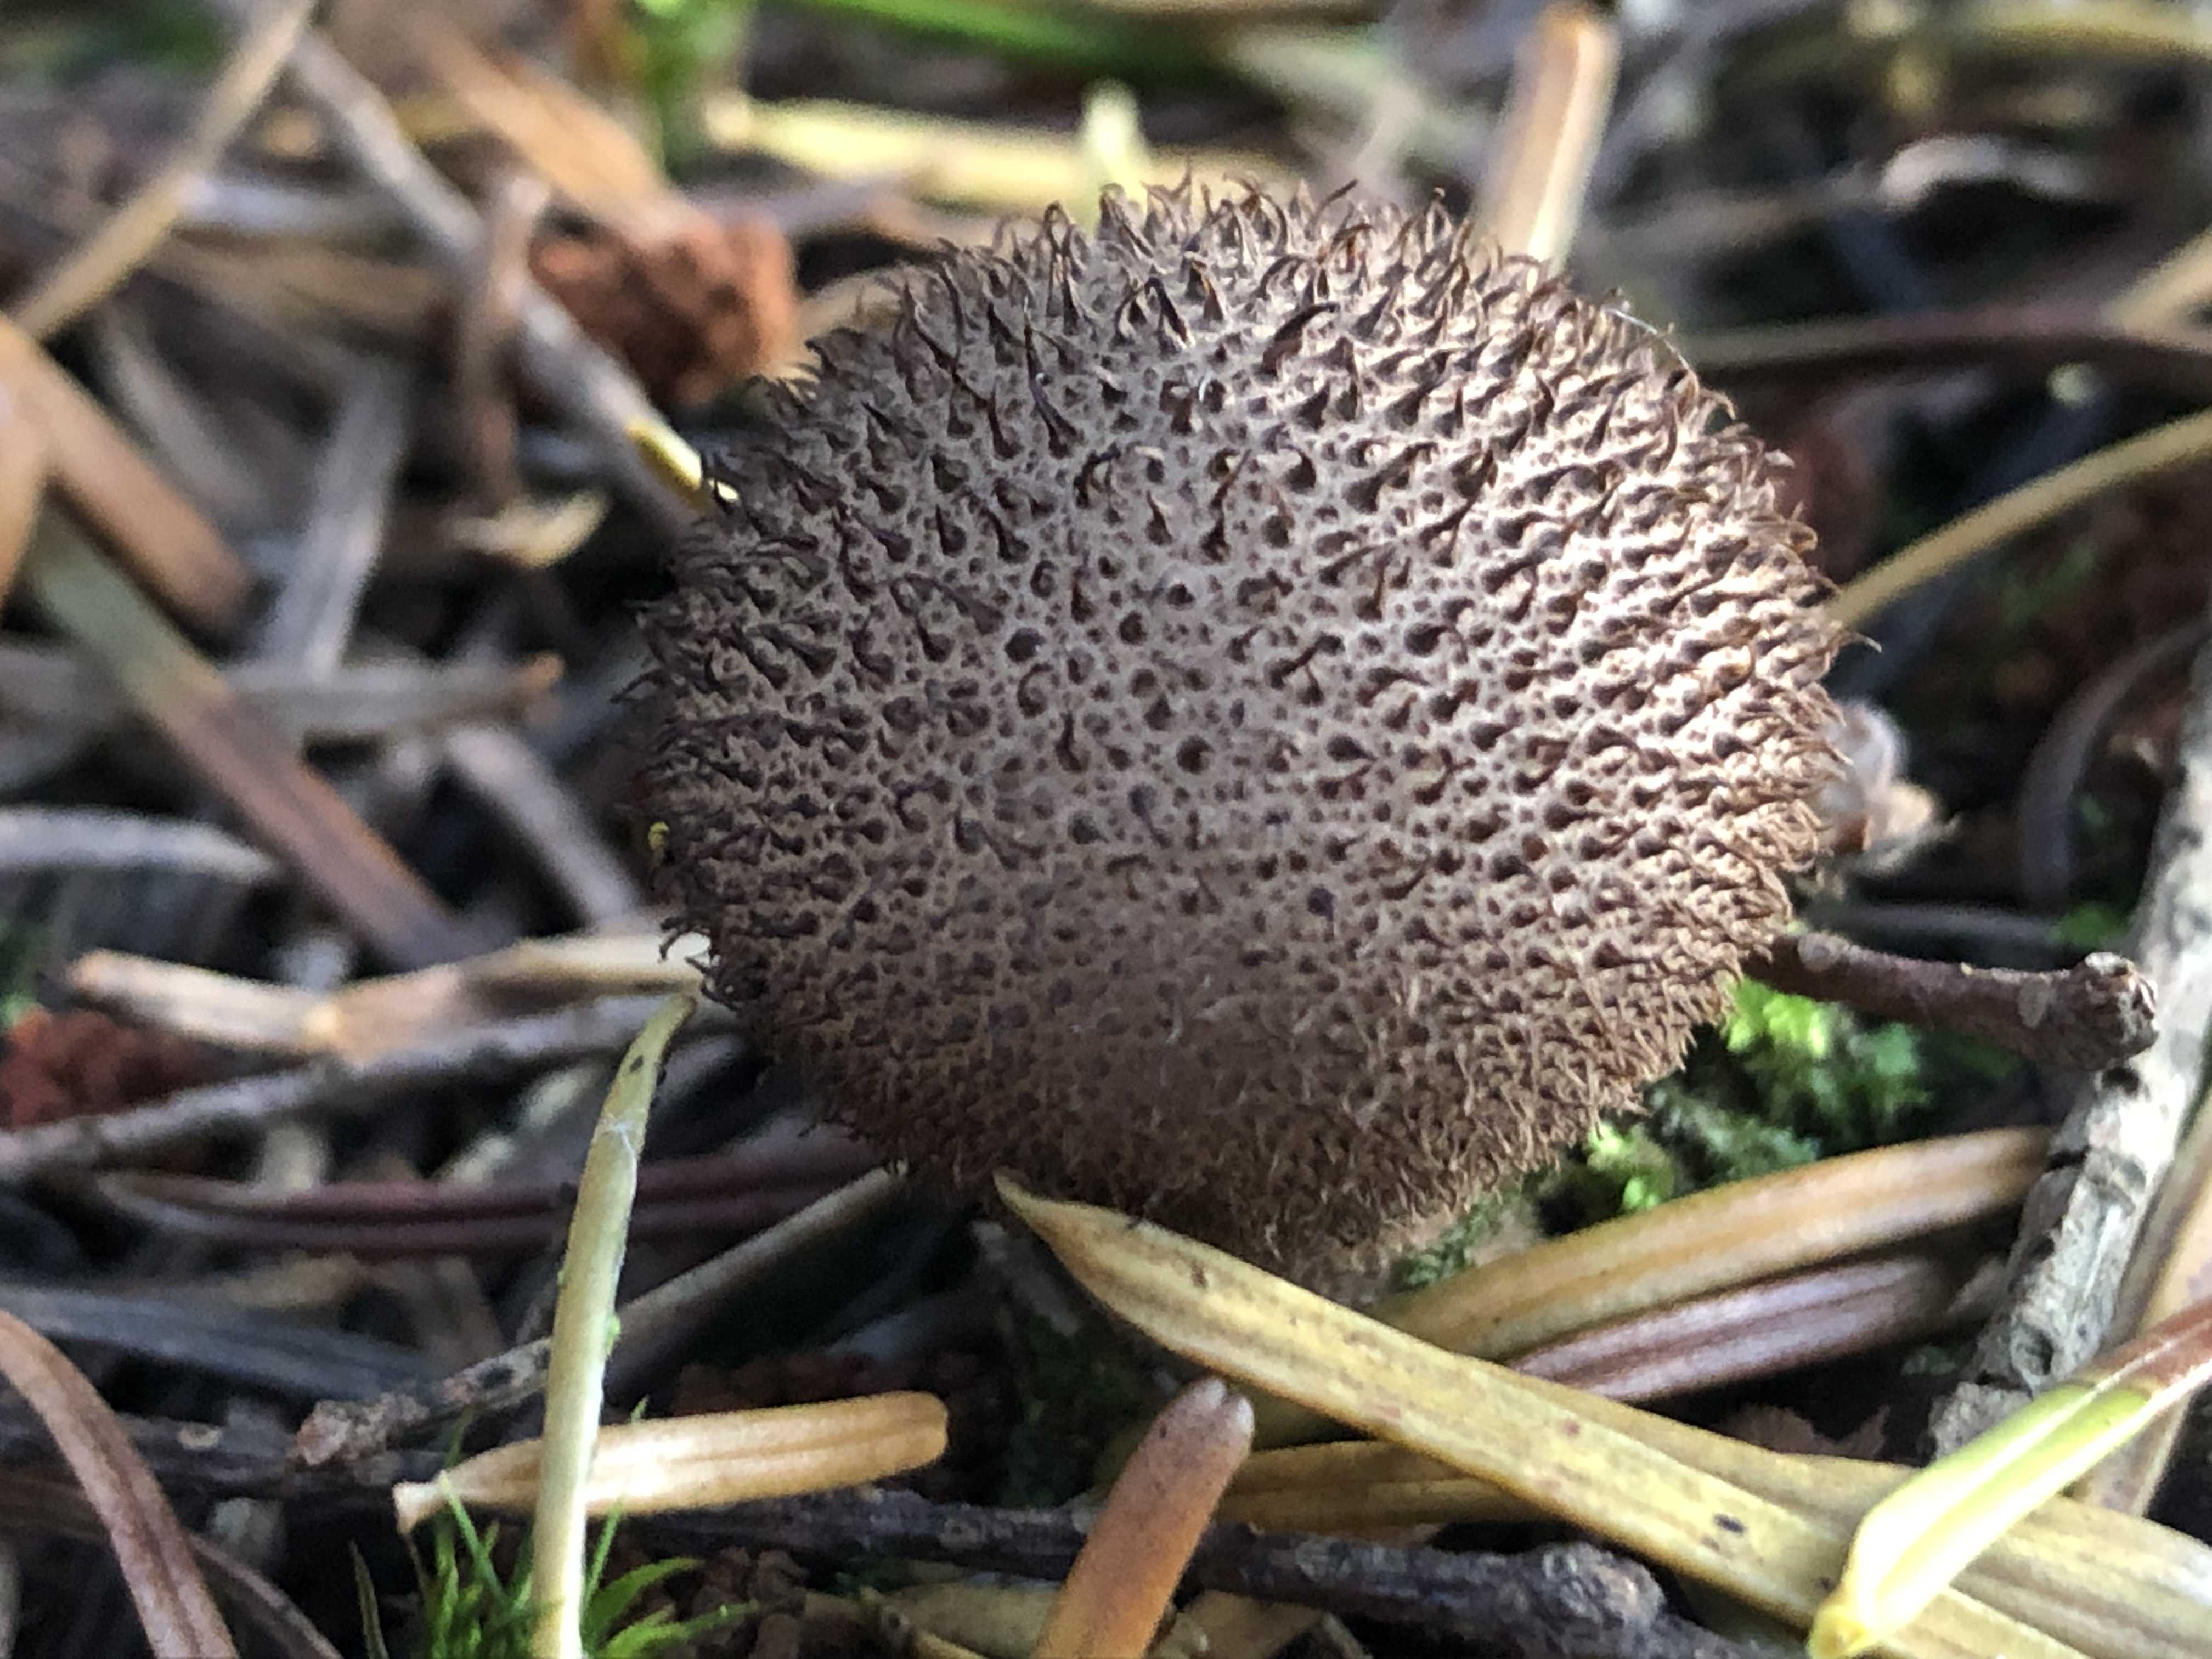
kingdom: Fungi
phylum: Basidiomycota
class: Agaricomycetes
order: Agaricales
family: Lycoperdaceae
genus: Lycoperdon
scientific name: Lycoperdon nigrescens
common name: sortagtig støvbold
